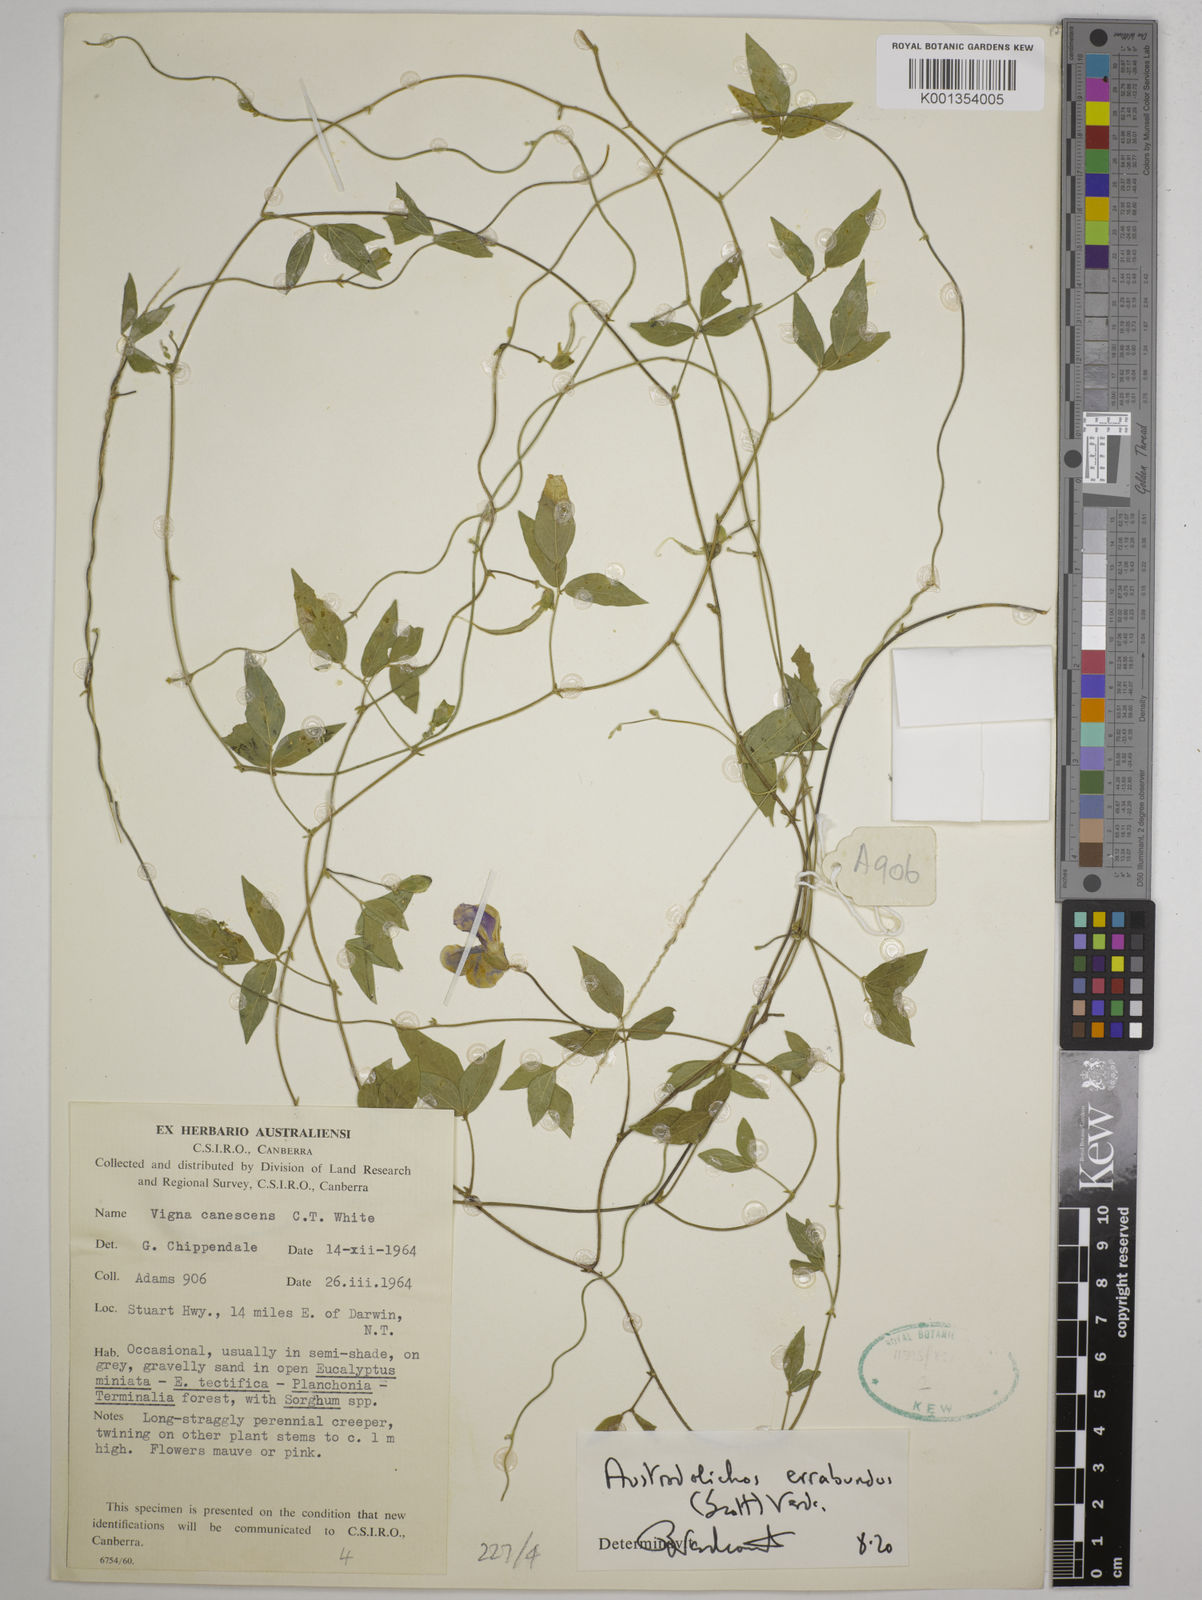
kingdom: Plantae
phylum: Tracheophyta
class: Magnoliopsida
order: Fabales
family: Fabaceae
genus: Austrodolichos
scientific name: Austrodolichos errabundus
